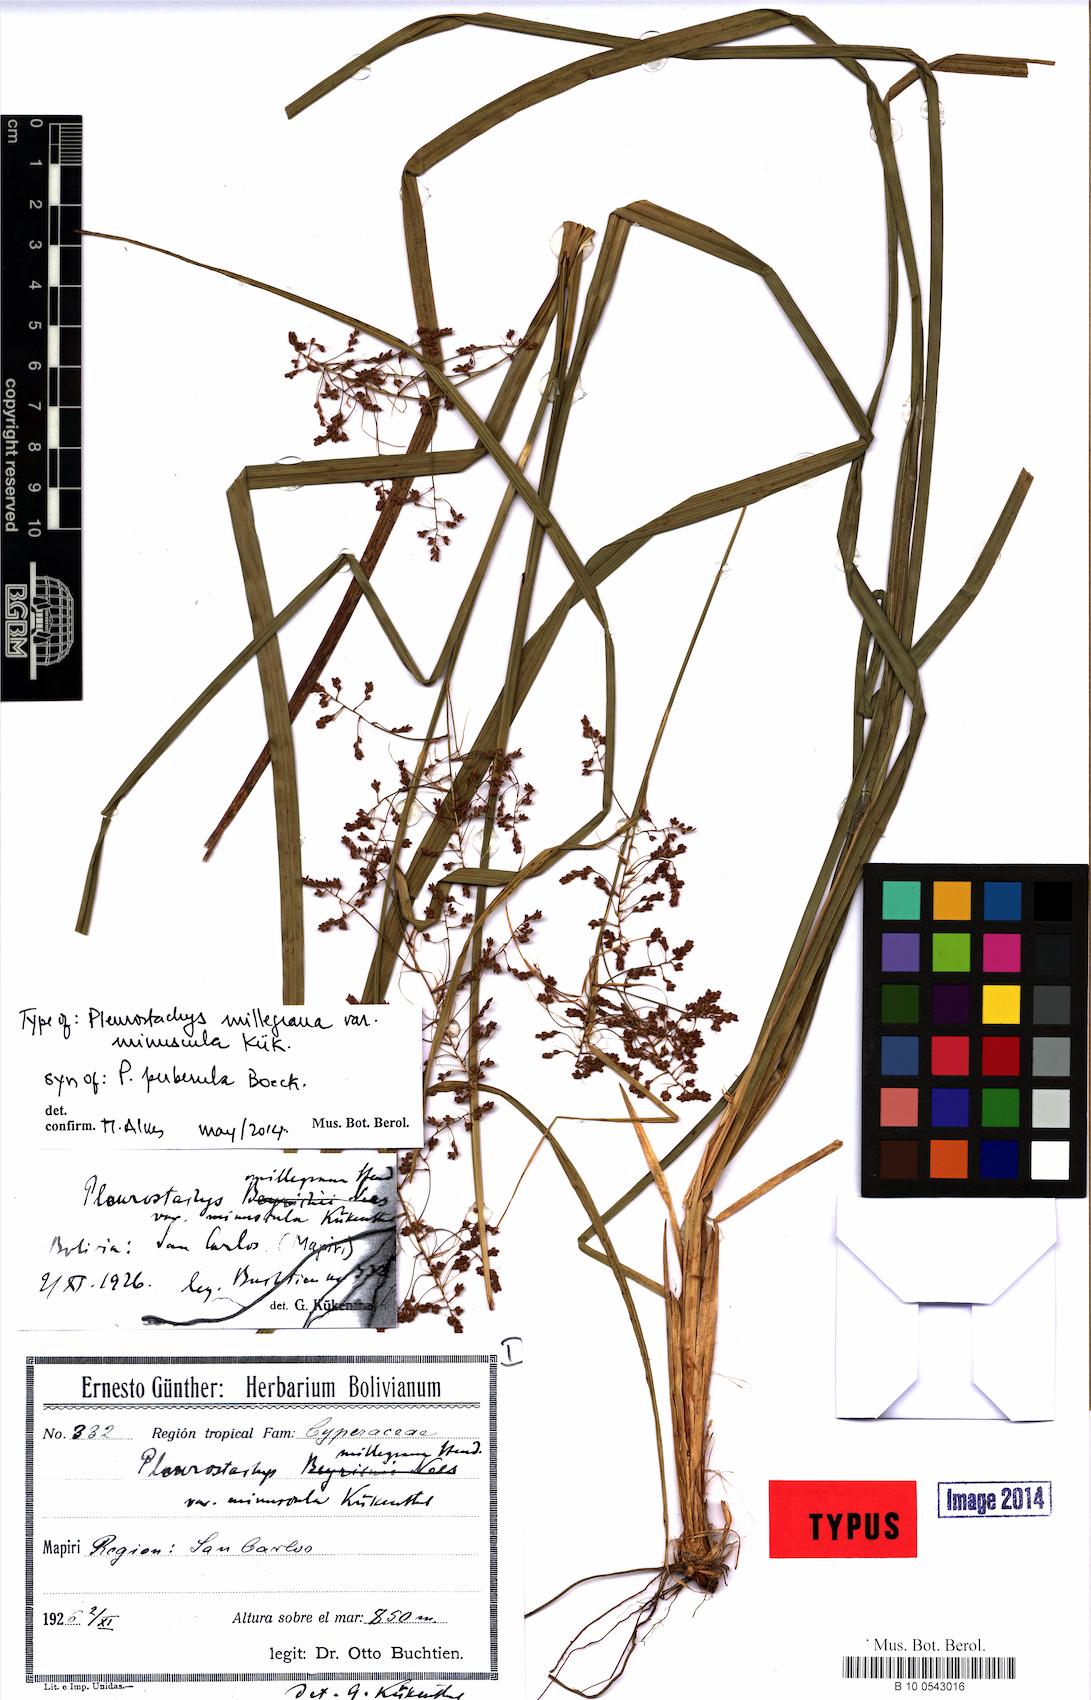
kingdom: Plantae
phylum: Tracheophyta
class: Liliopsida
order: Poales
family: Cyperaceae
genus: Rhynchospora
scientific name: Rhynchospora orbignyana
